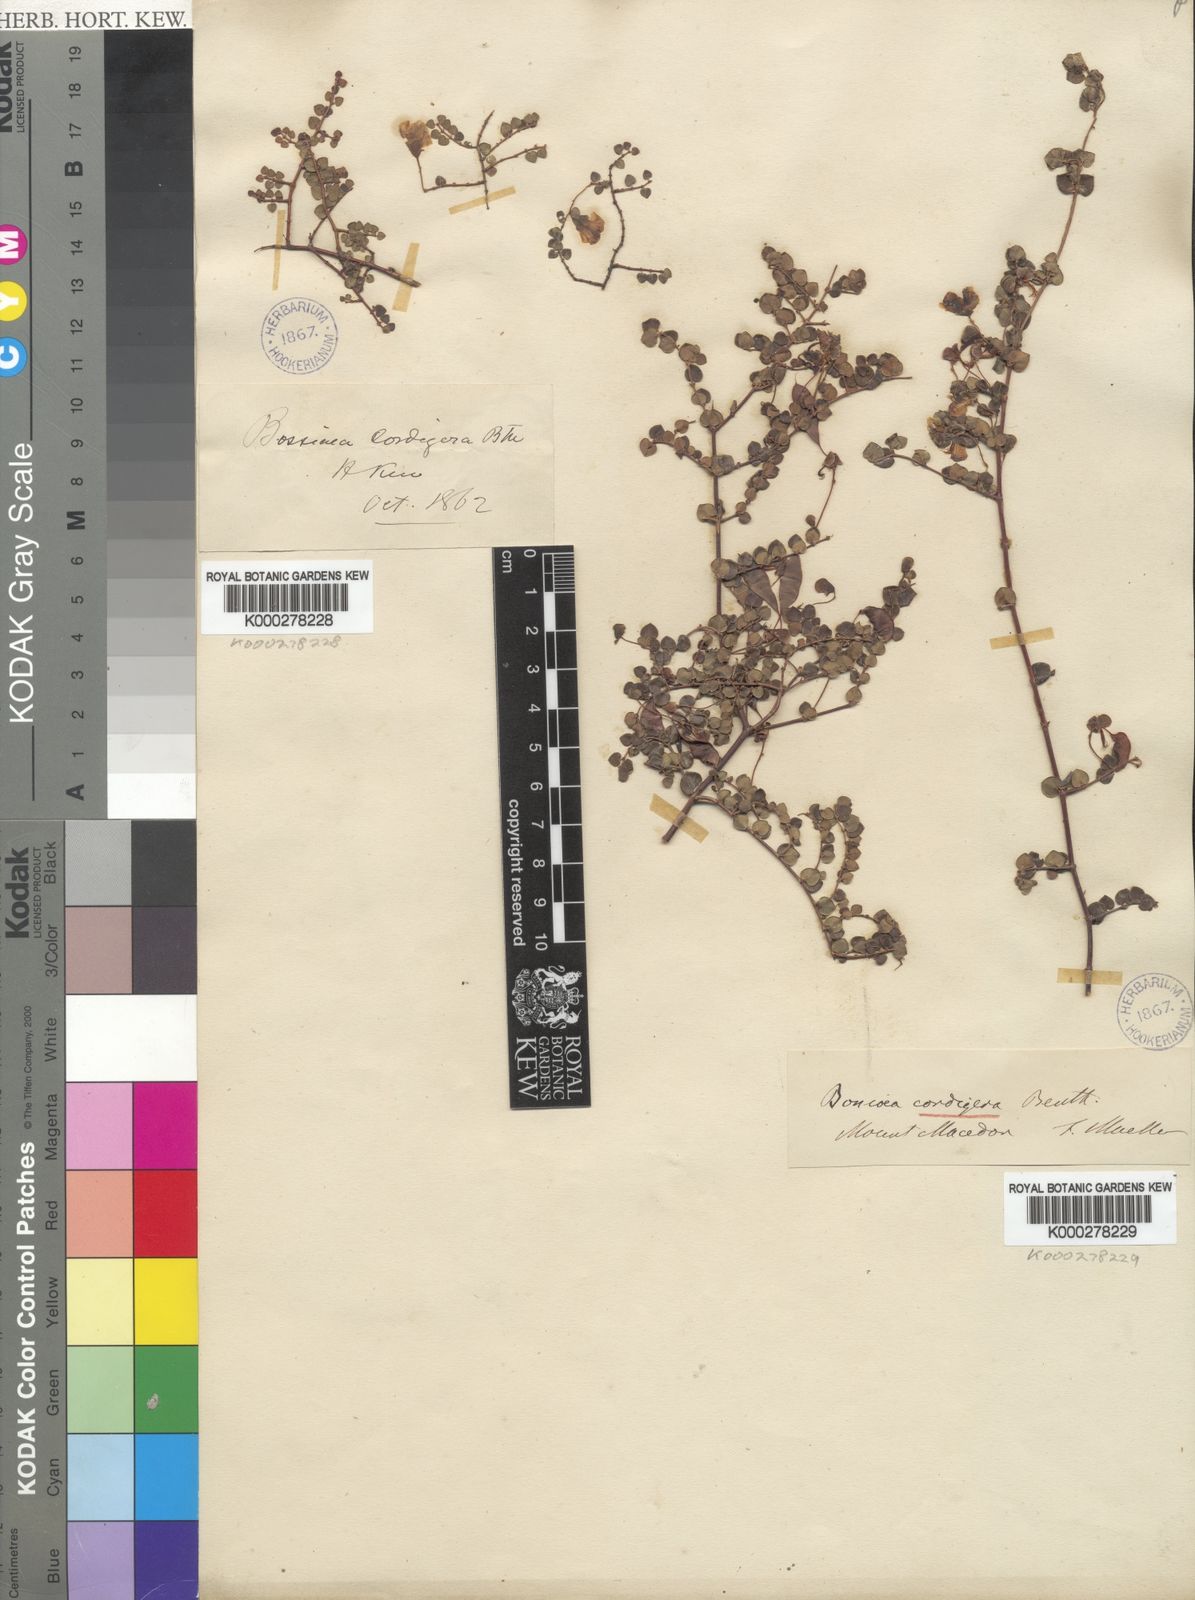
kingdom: Plantae
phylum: Tracheophyta
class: Magnoliopsida
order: Fabales
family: Fabaceae
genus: Bossiaea
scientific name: Bossiaea hendersonii
